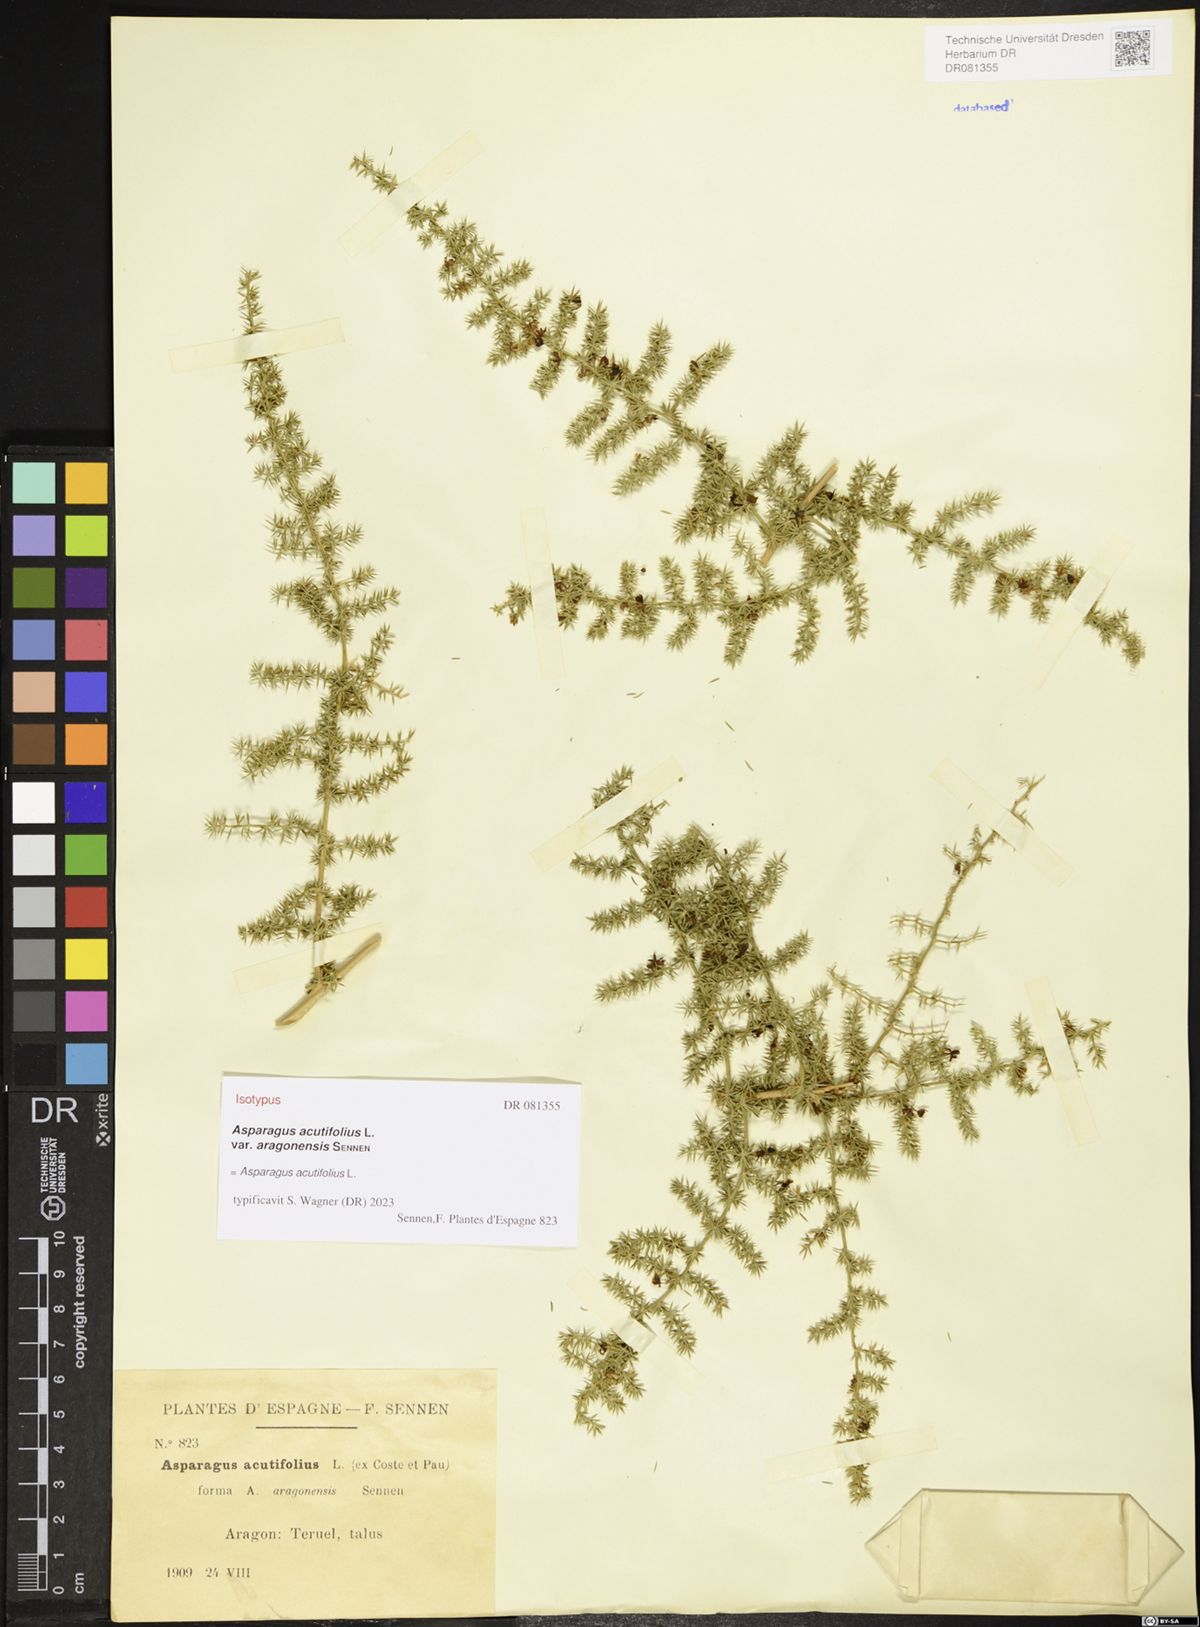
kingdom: Plantae
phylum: Tracheophyta
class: Liliopsida
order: Asparagales
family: Asparagaceae
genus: Asparagus
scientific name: Asparagus acutifolius
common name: Wild asparagus
